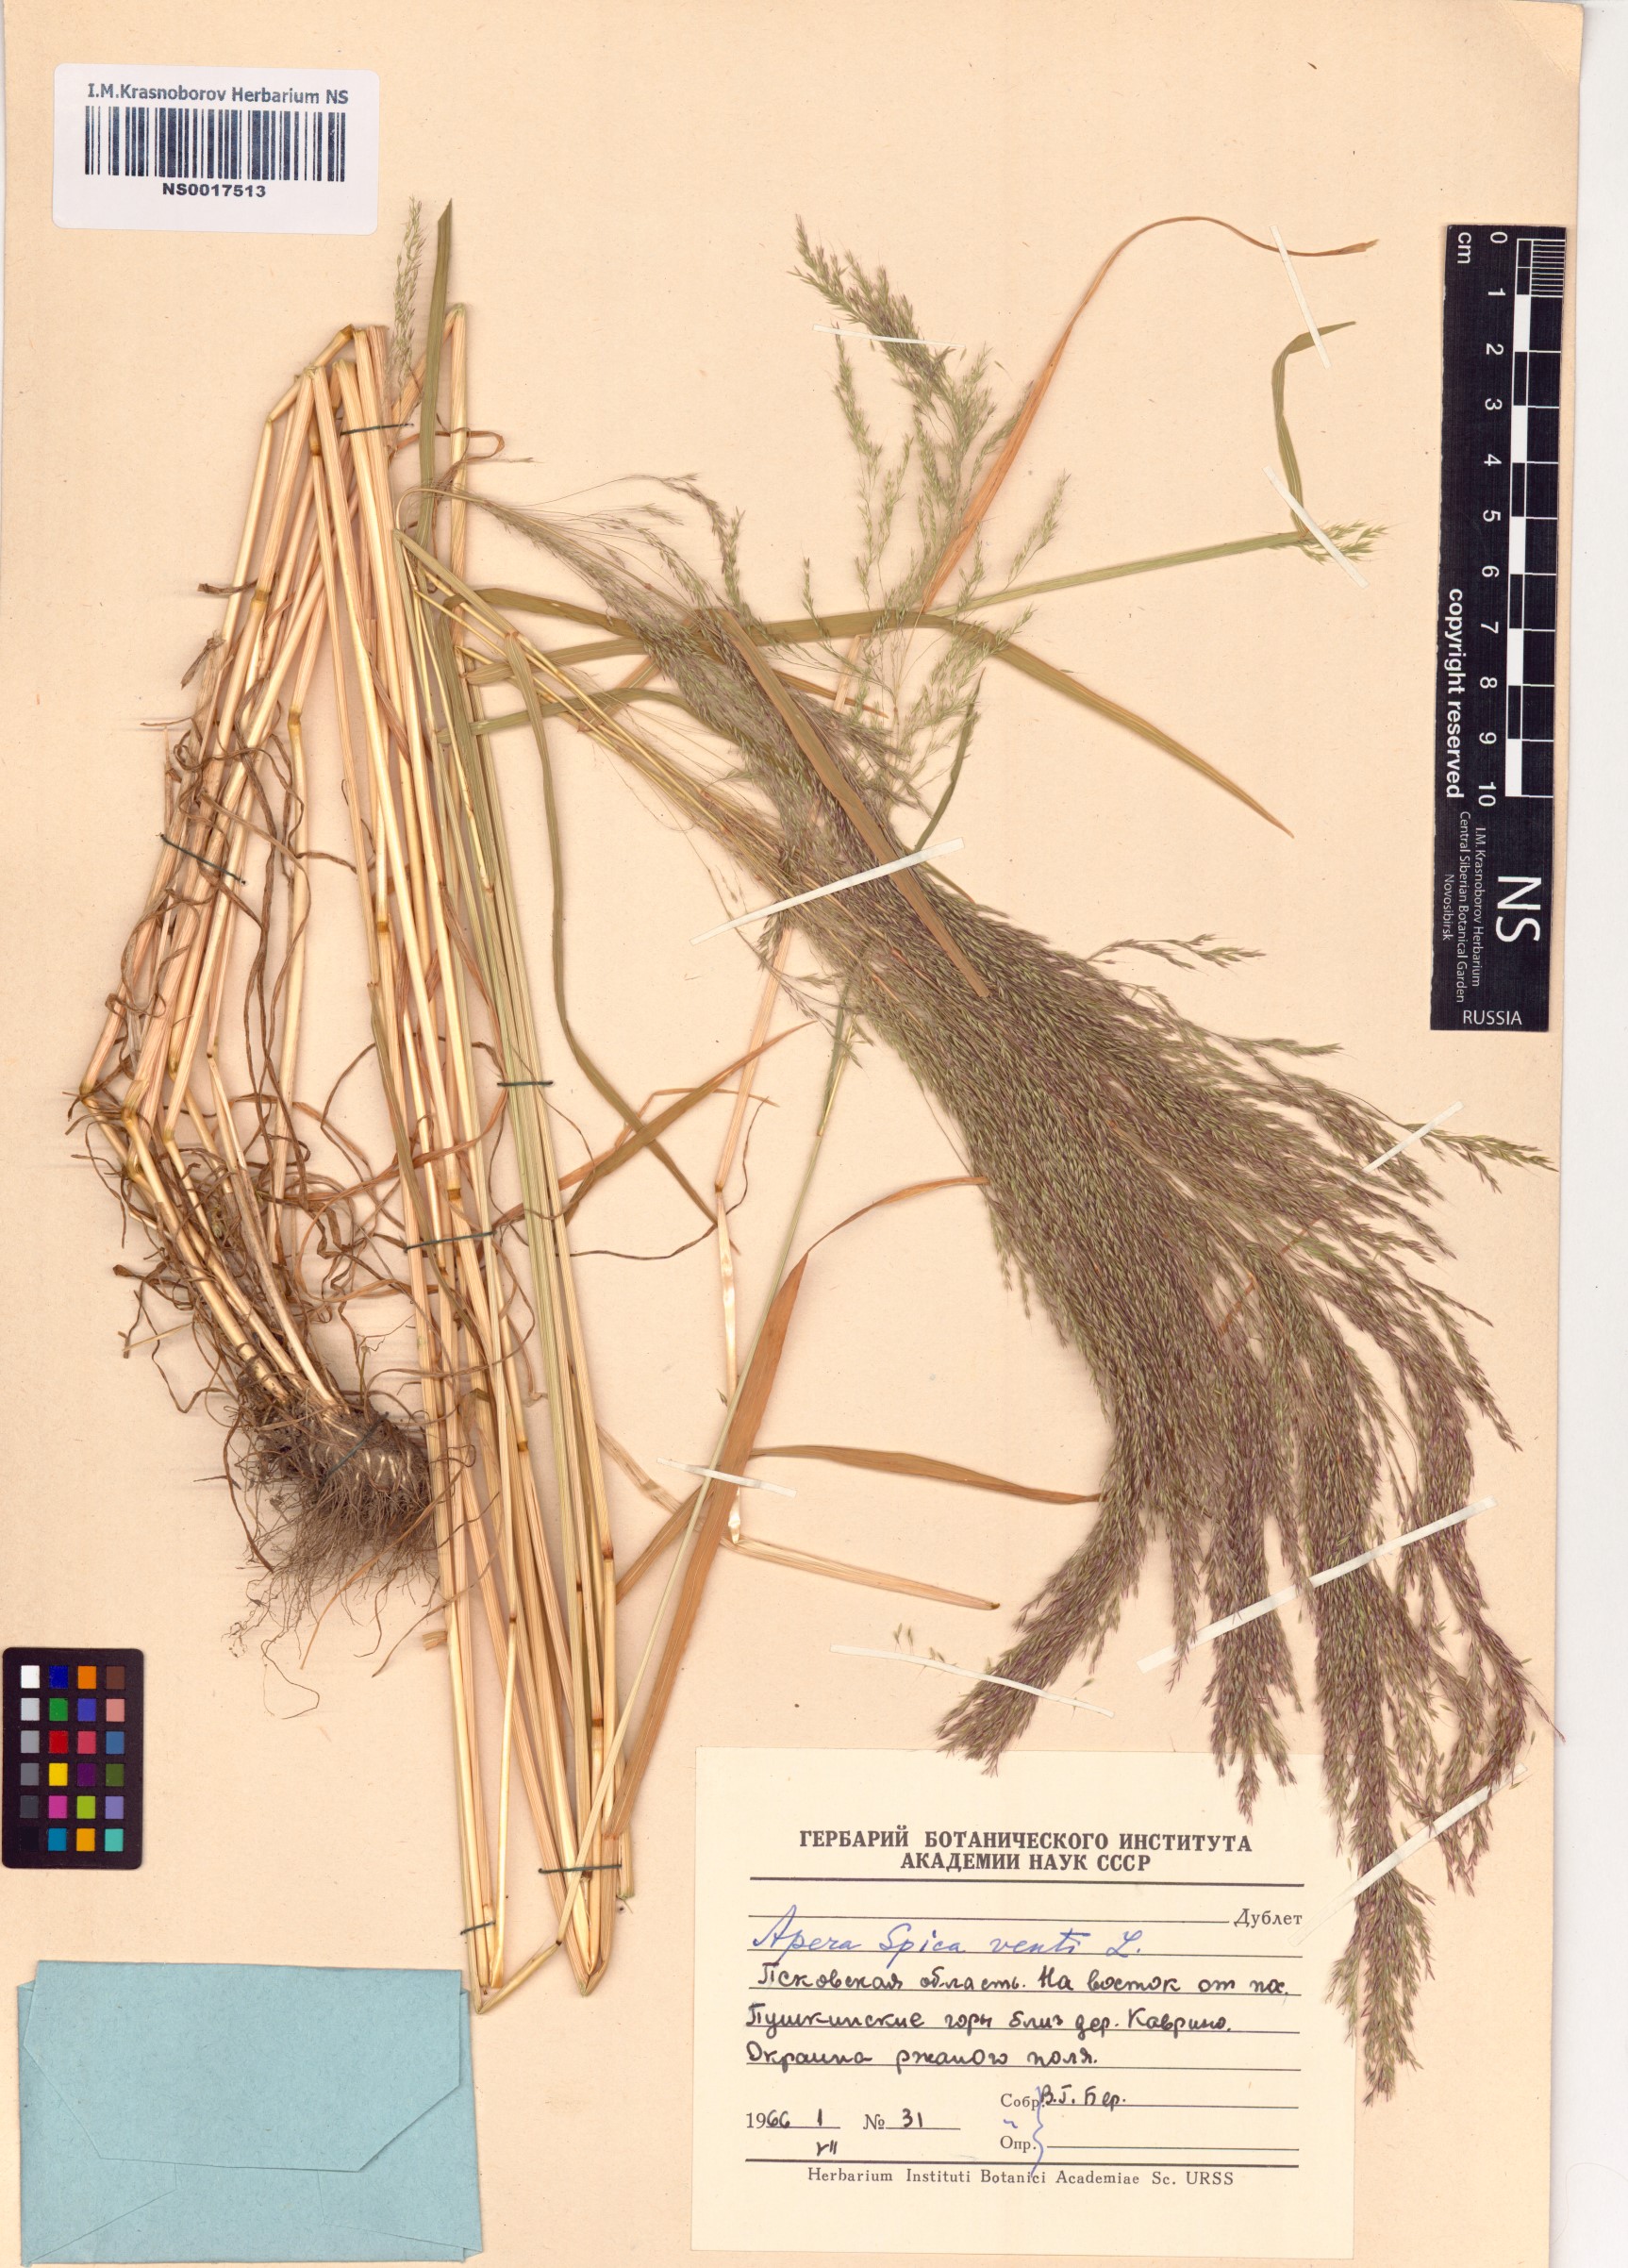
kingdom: Plantae
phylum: Tracheophyta
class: Liliopsida
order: Poales
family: Poaceae
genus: Apera
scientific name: Apera spica-venti
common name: Loose silky-bent
